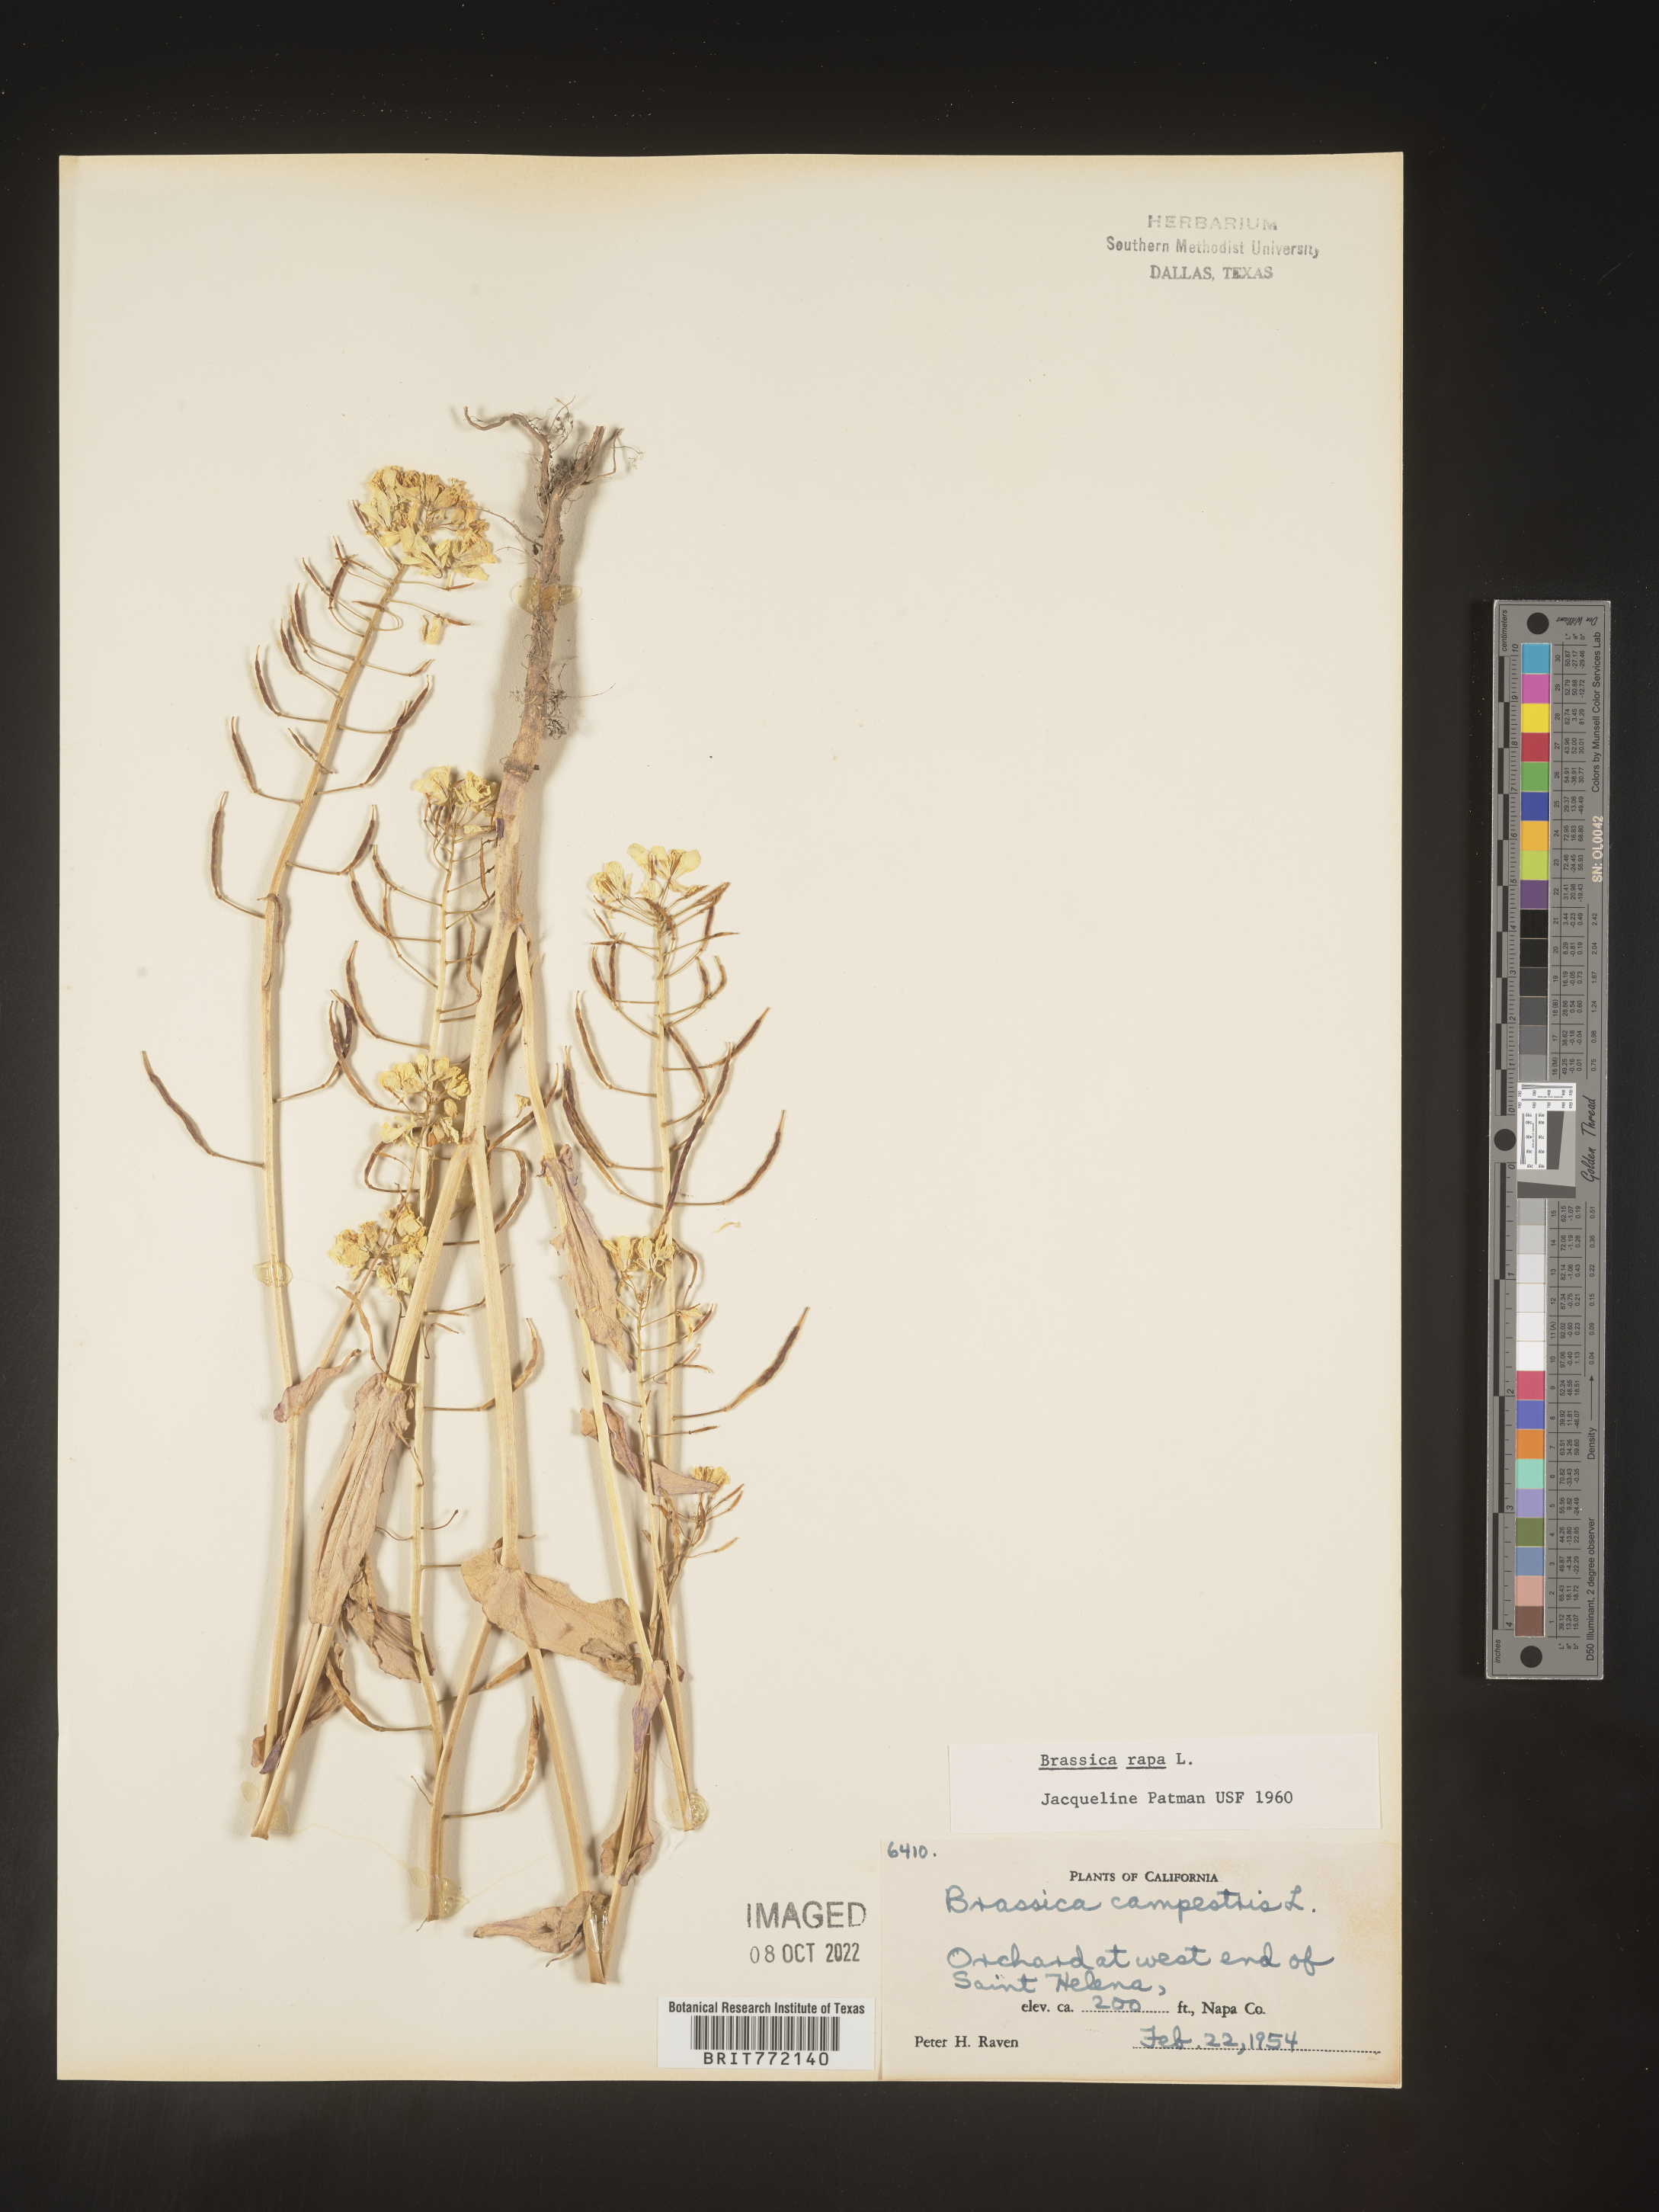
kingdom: Plantae
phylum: Tracheophyta
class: Magnoliopsida
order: Brassicales
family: Brassicaceae
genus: Brassica
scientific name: Brassica rapa
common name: Field mustard
